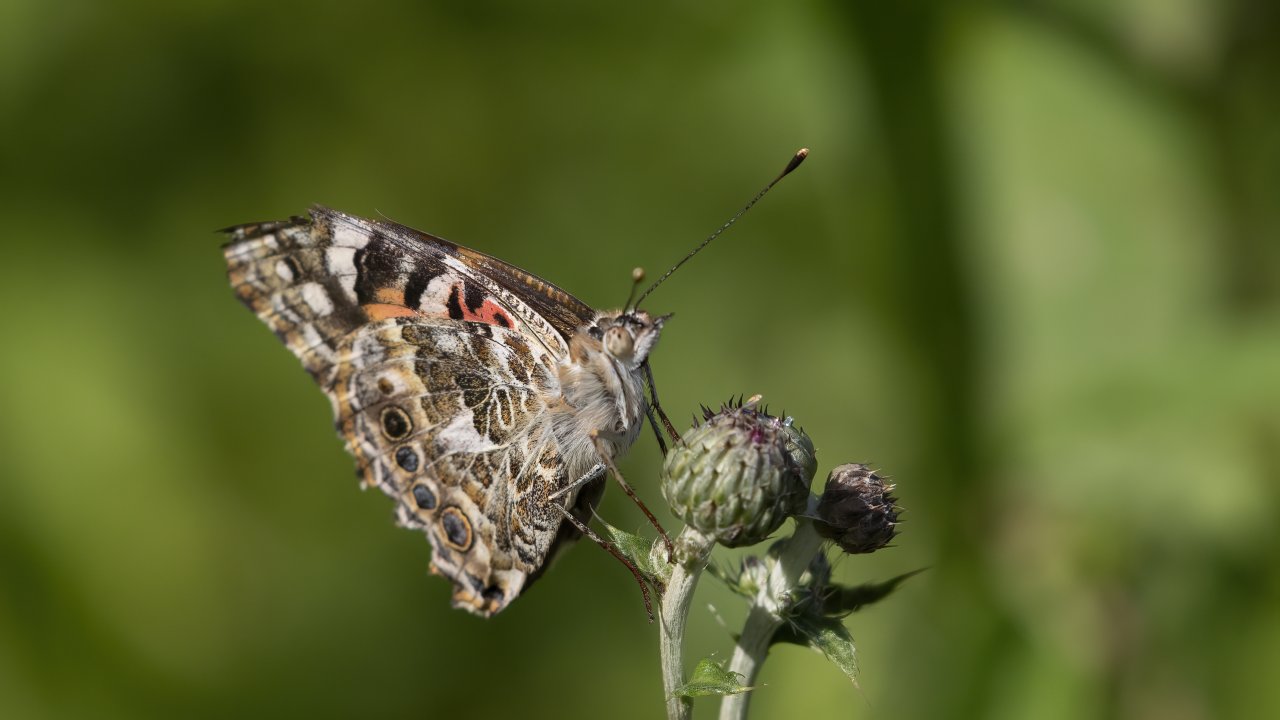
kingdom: Animalia
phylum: Arthropoda
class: Insecta
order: Lepidoptera
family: Nymphalidae
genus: Vanessa
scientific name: Vanessa cardui
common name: Painted Lady
